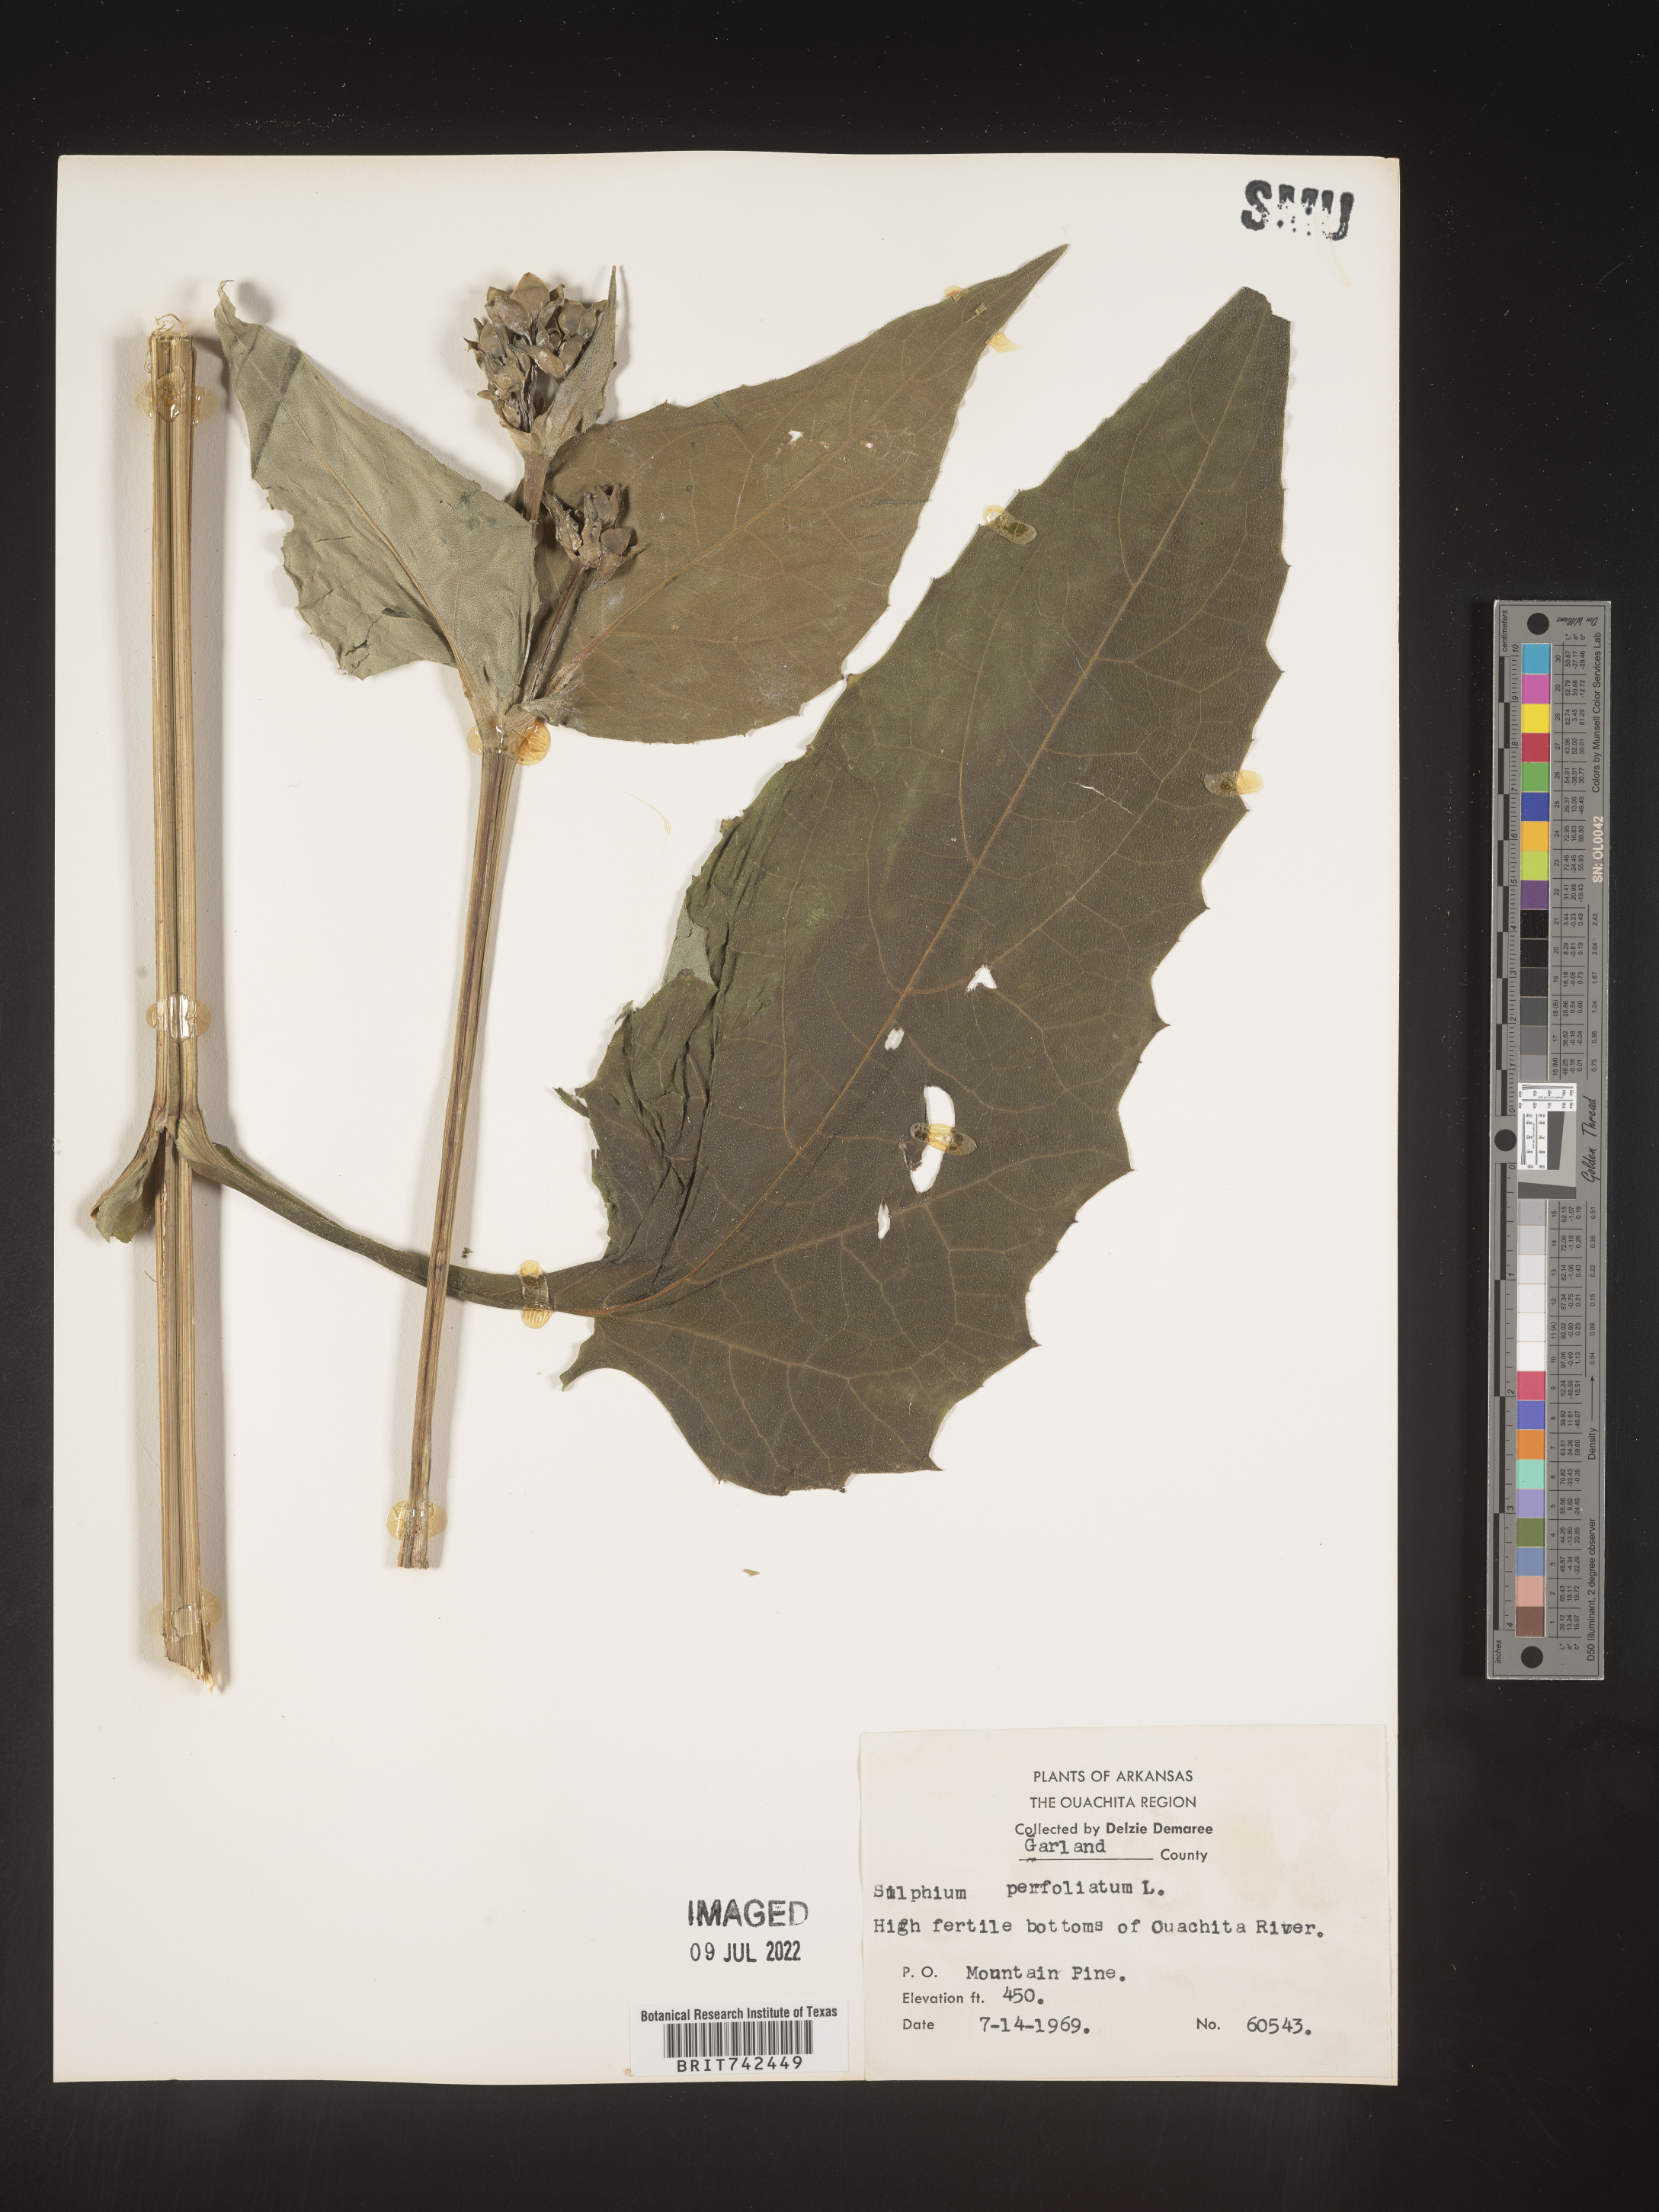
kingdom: Plantae
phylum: Tracheophyta
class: Magnoliopsida
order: Asterales
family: Asteraceae
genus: Silphium
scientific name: Silphium perfoliatum
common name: Cup-plant
